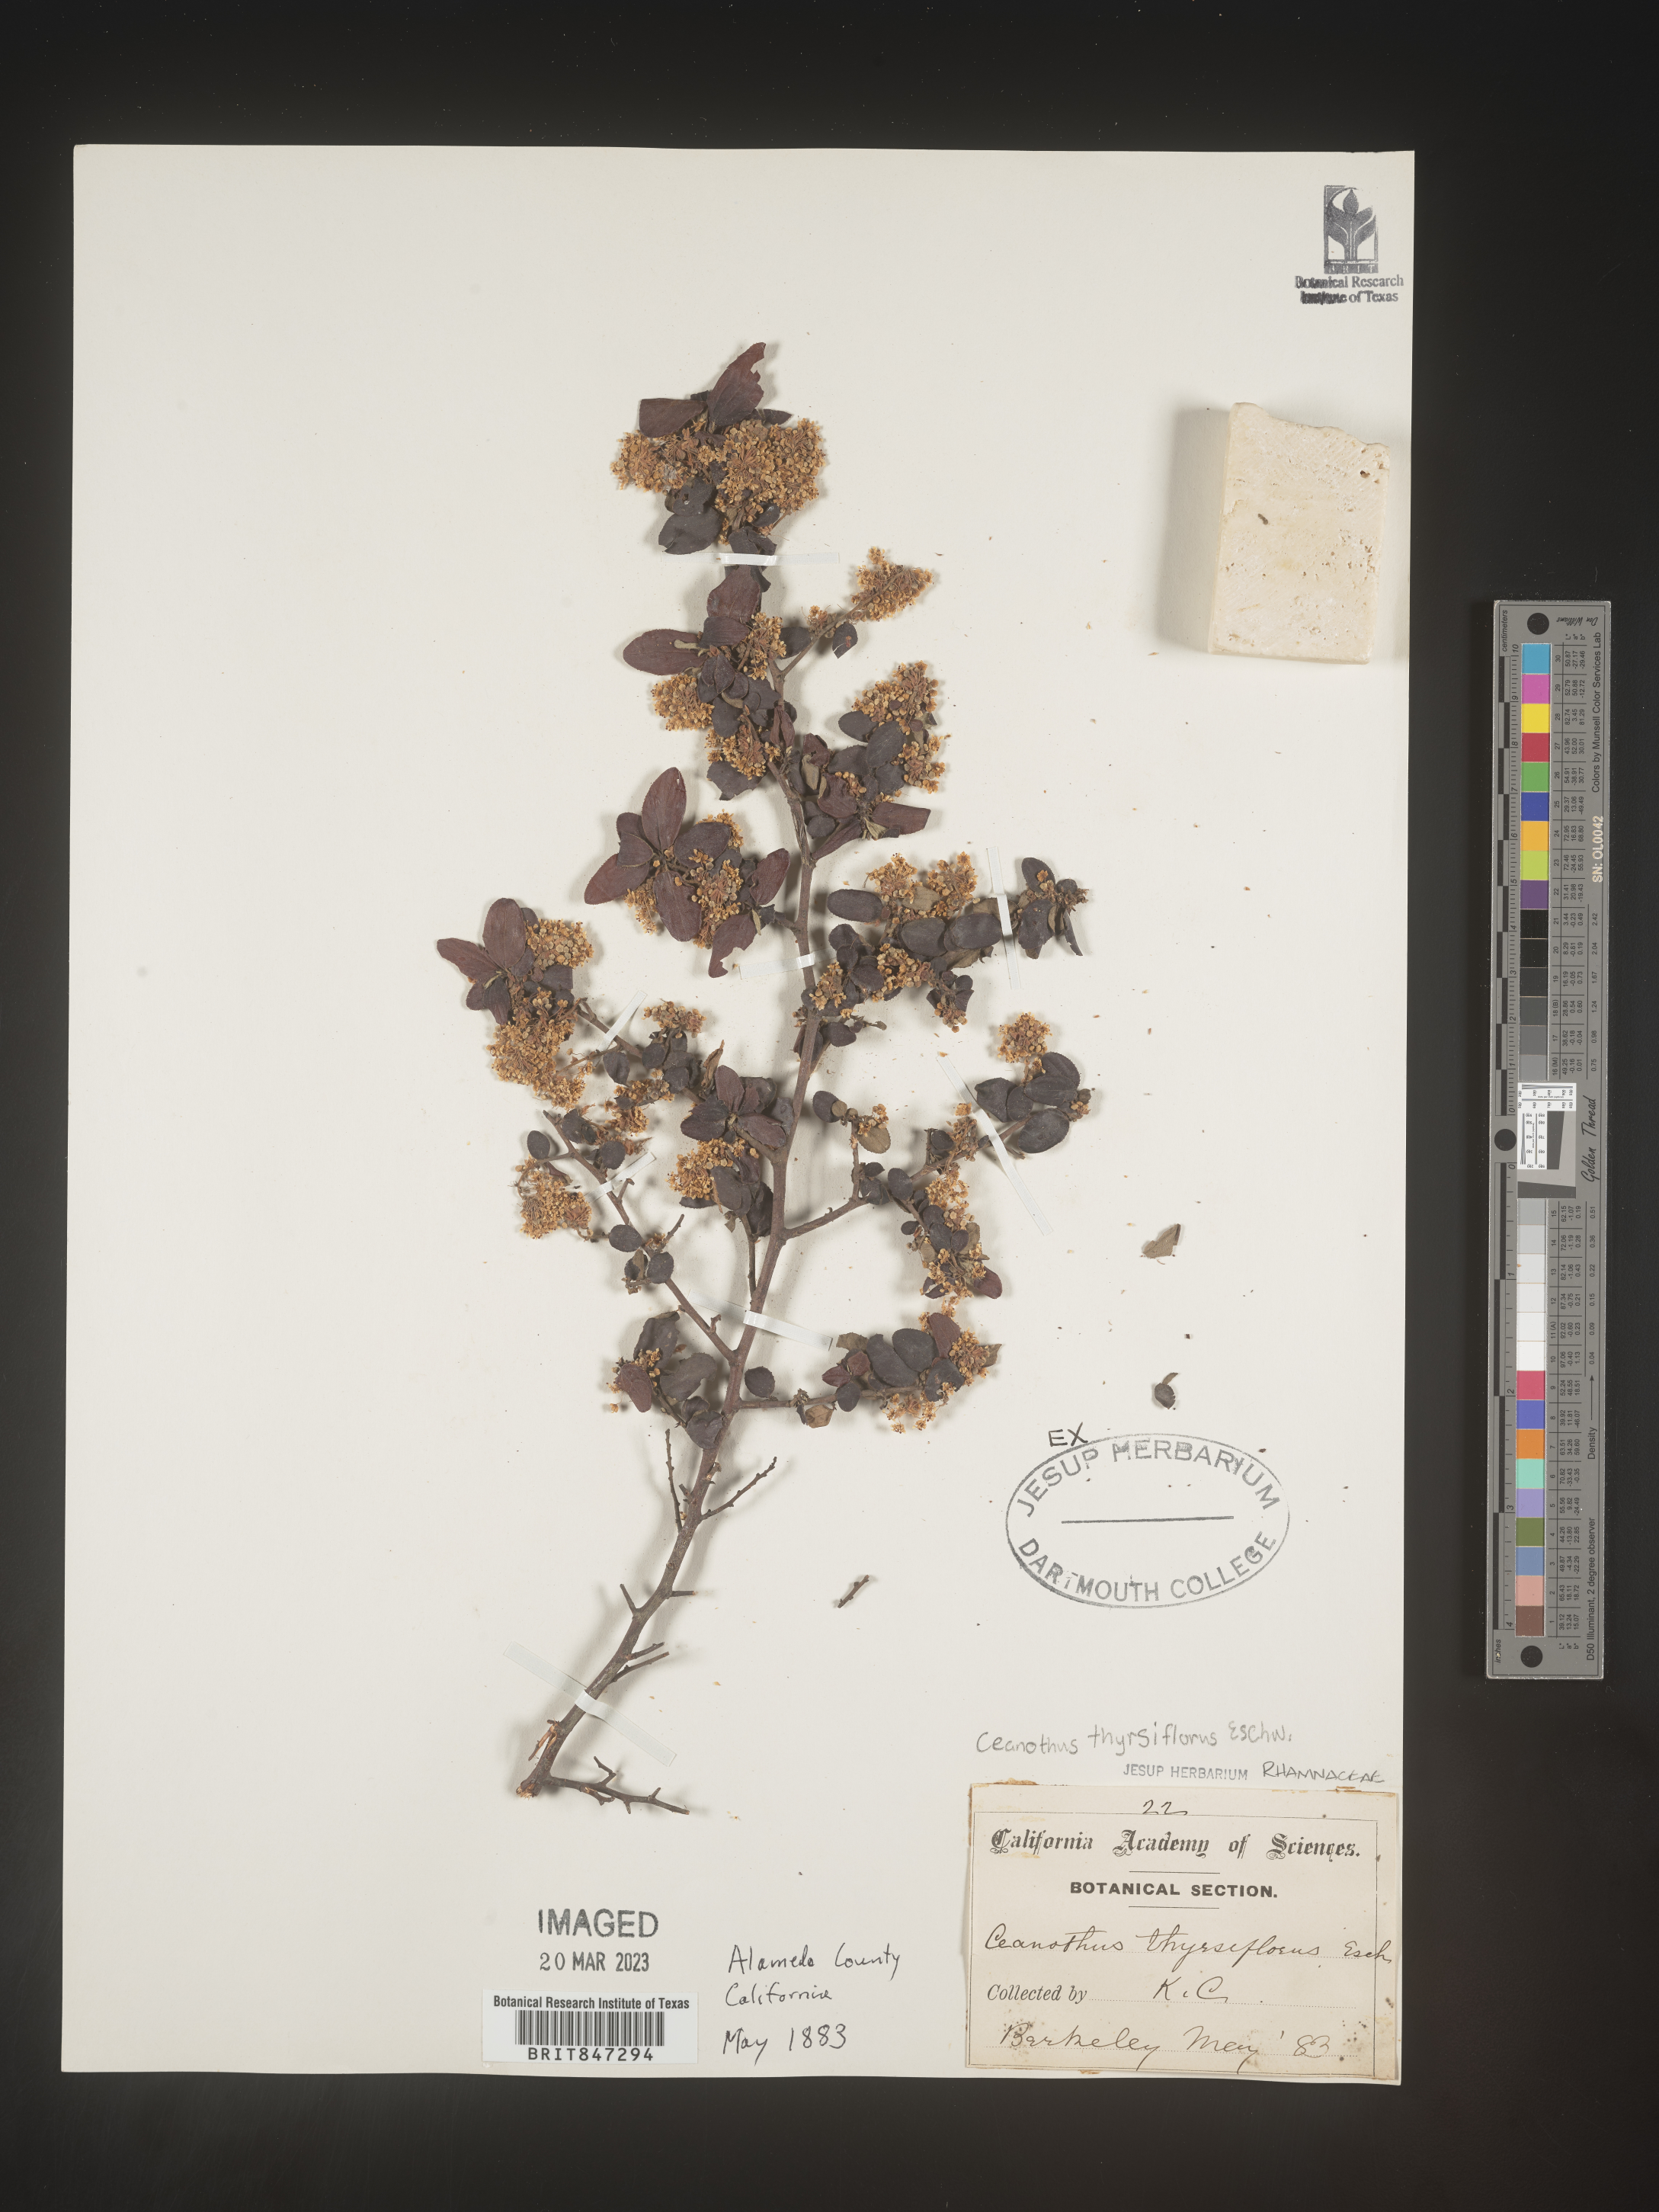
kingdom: Plantae
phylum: Tracheophyta
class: Magnoliopsida
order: Rosales
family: Rhamnaceae
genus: Ceanothus
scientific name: Ceanothus
